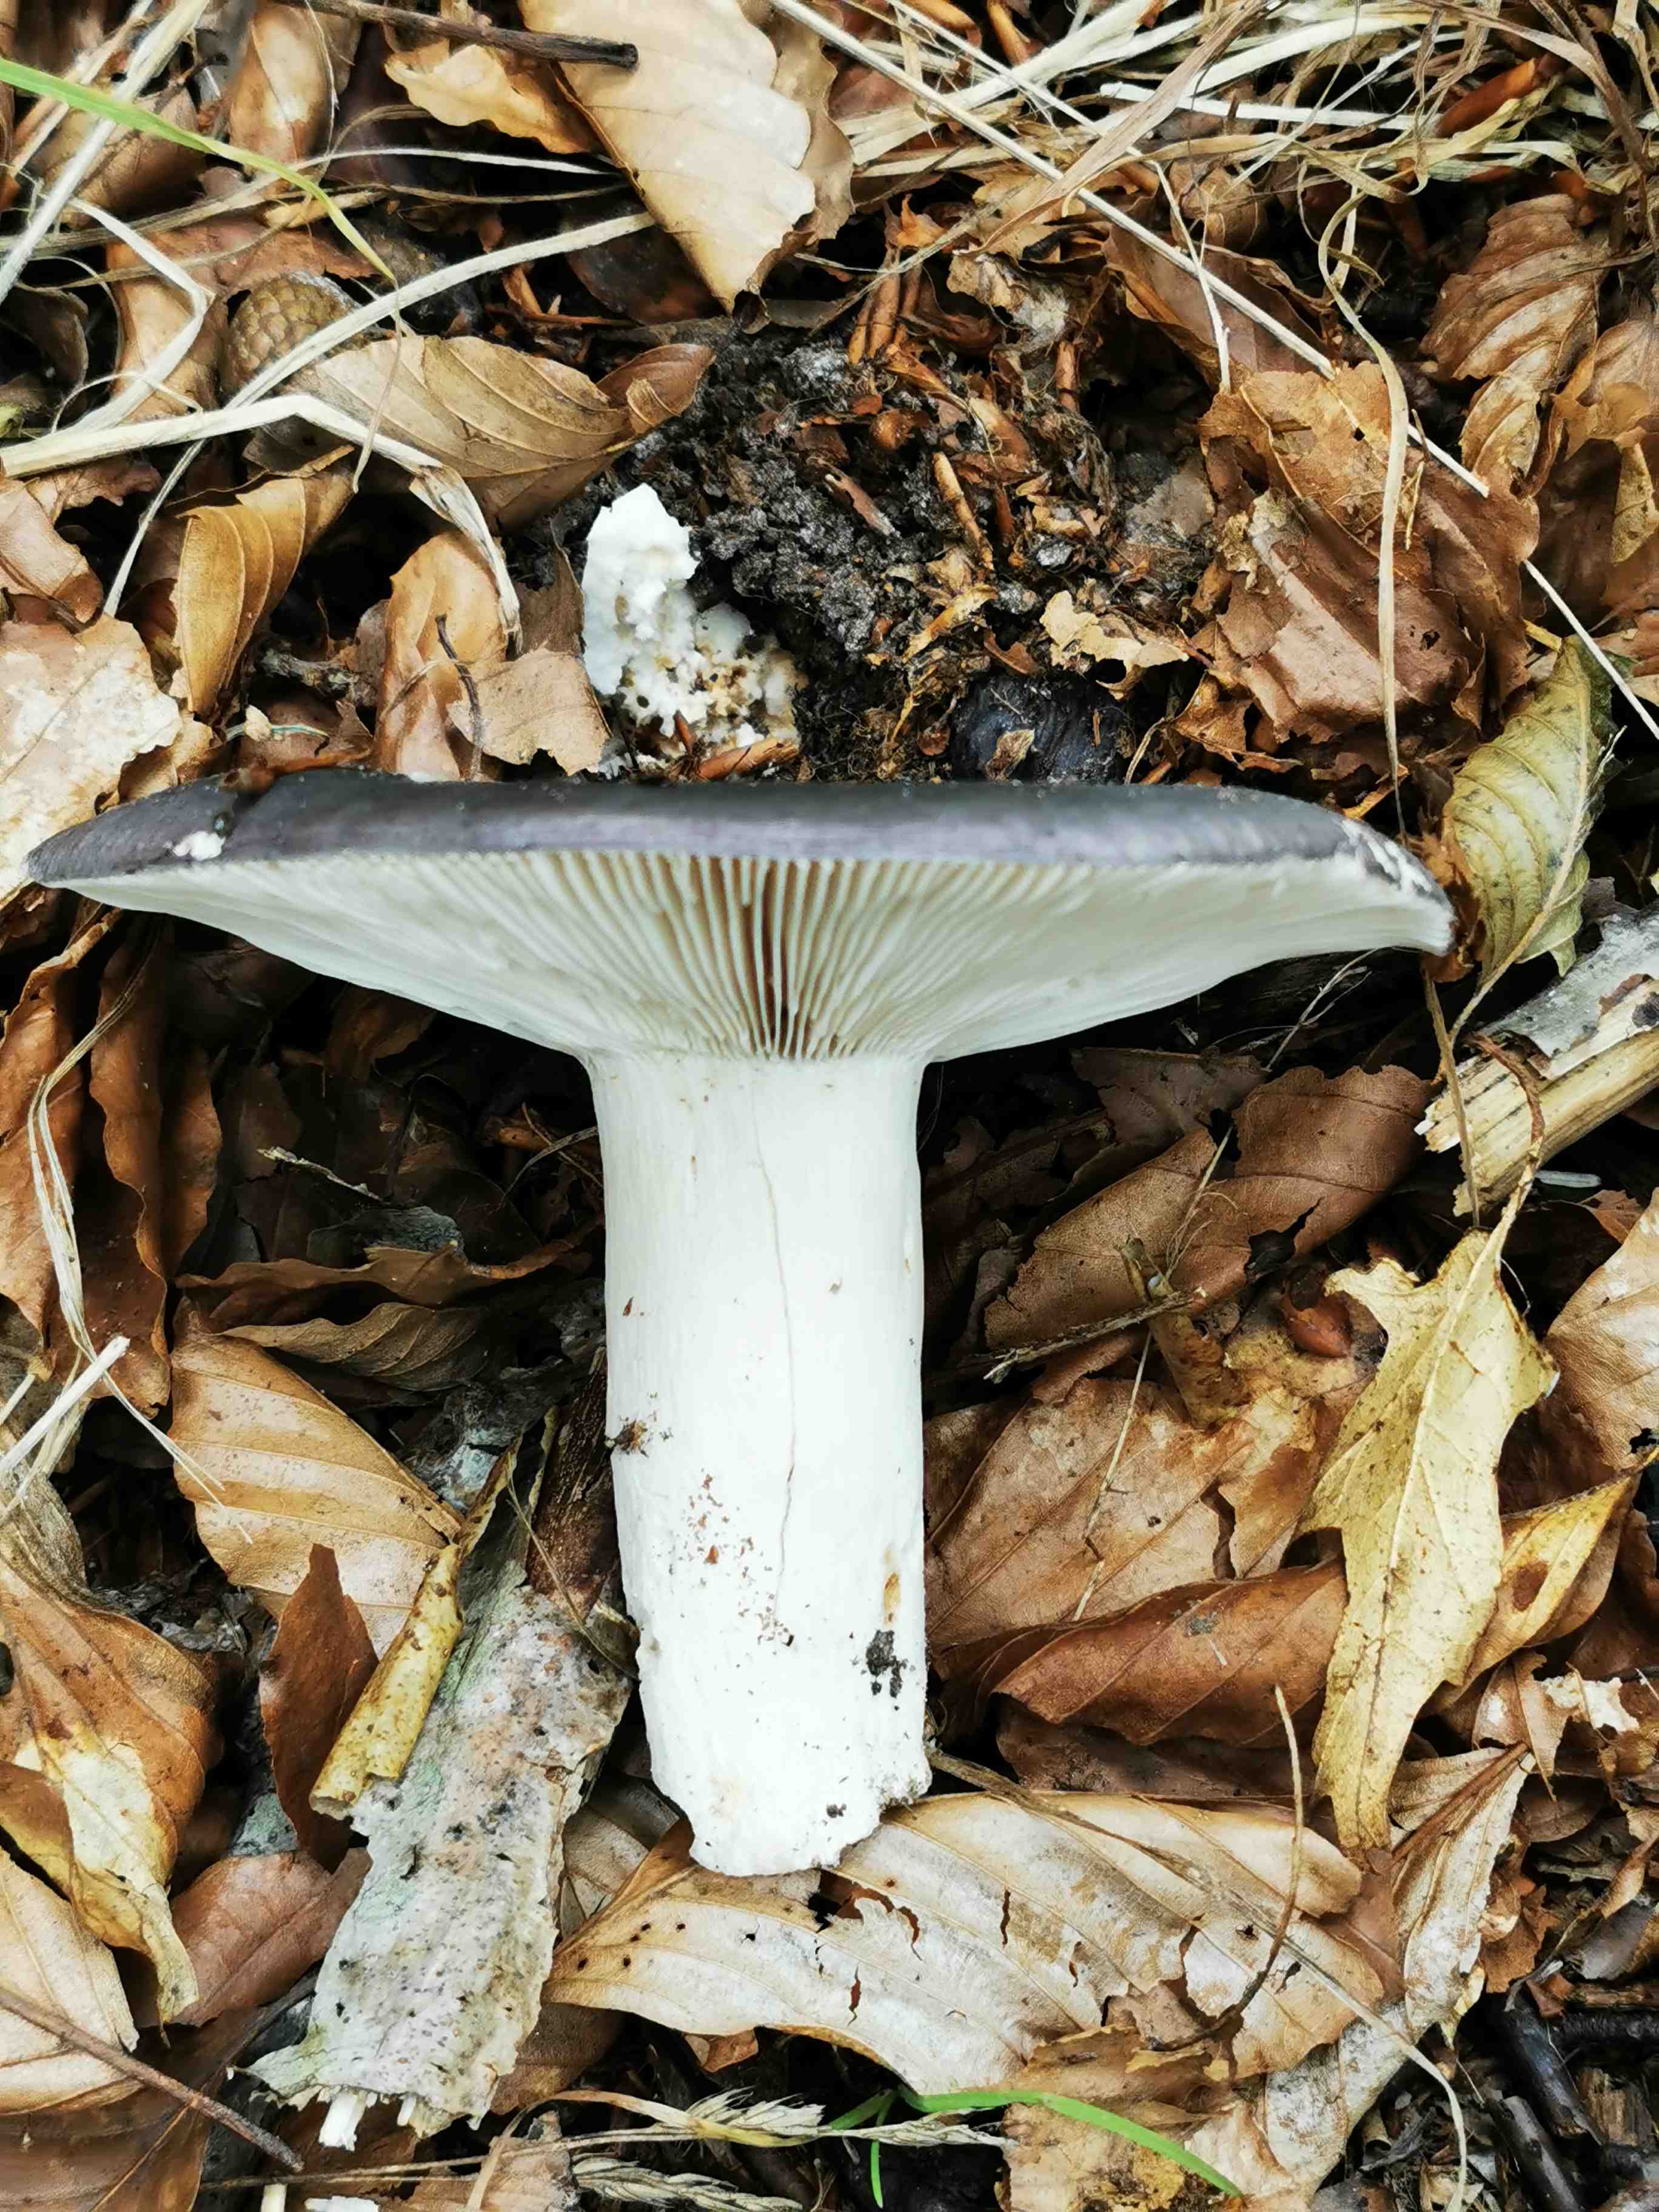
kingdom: Fungi
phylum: Basidiomycota
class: Agaricomycetes
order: Russulales
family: Russulaceae
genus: Russula
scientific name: Russula
